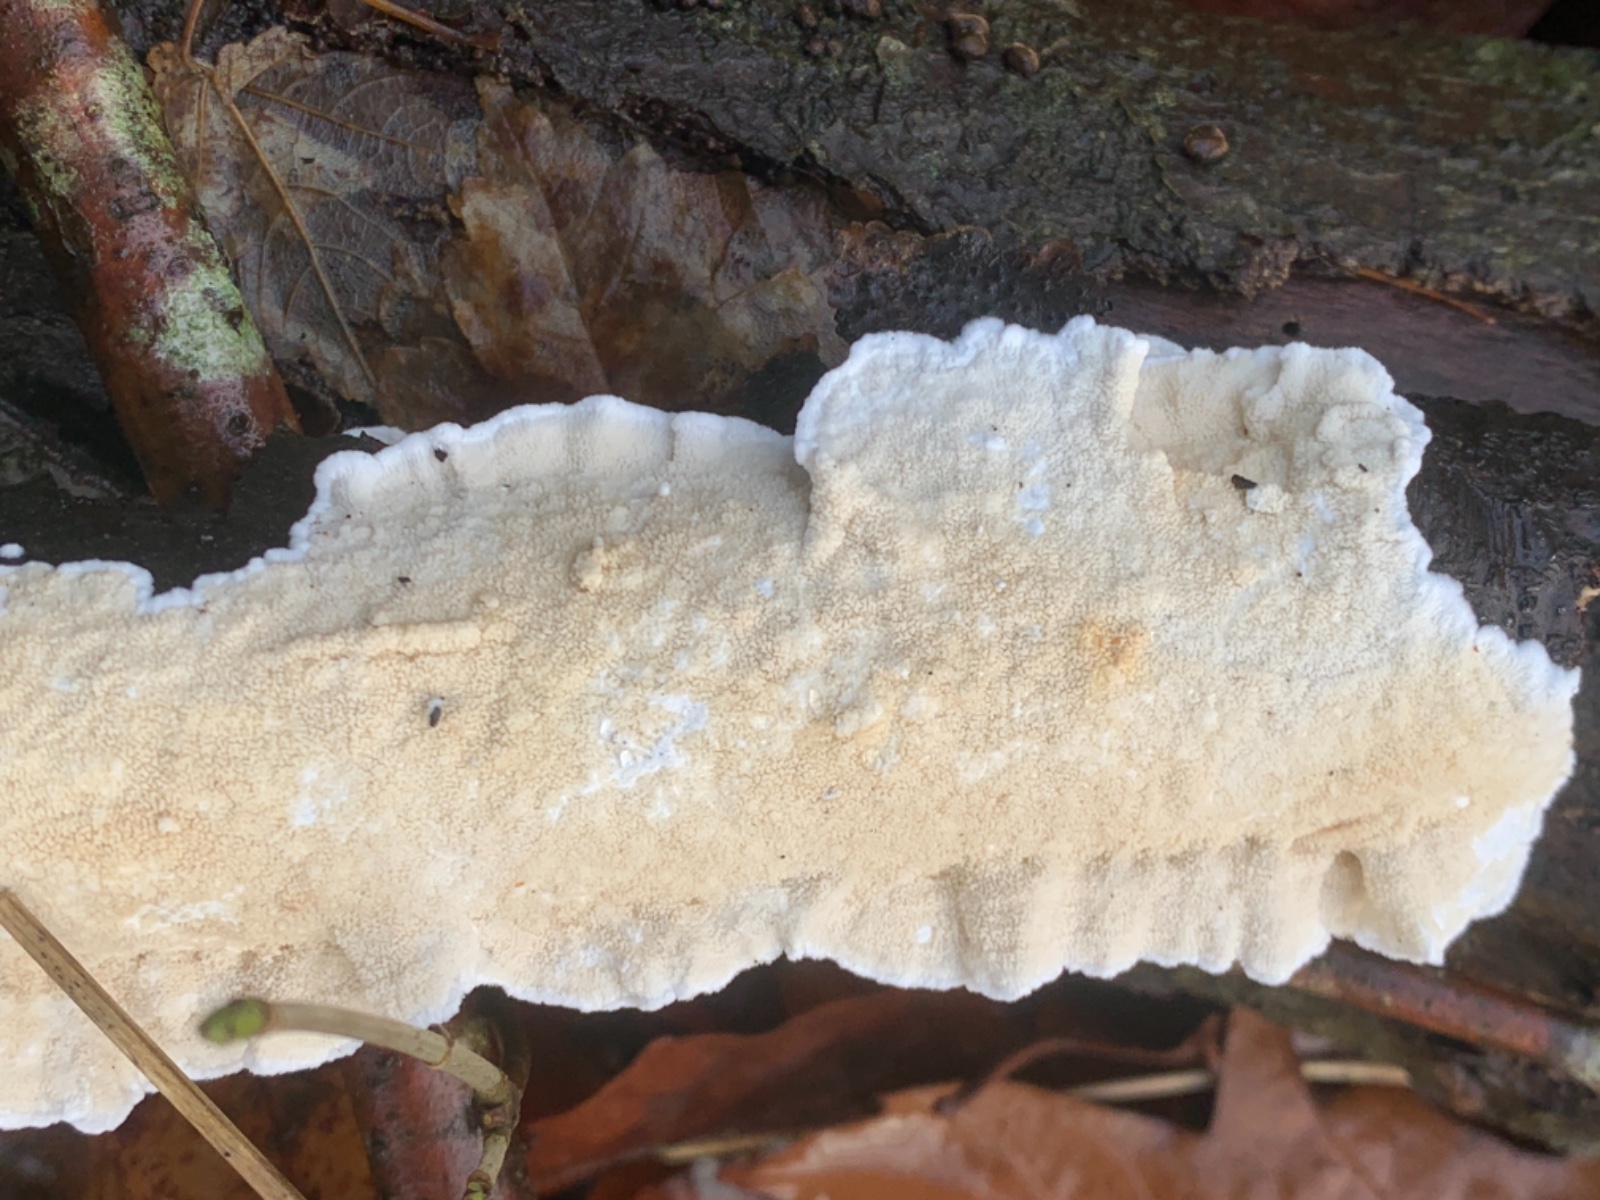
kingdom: Fungi
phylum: Basidiomycota
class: Agaricomycetes
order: Polyporales
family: Irpicaceae
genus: Byssomerulius
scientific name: Byssomerulius corium
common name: læder-åresvamp
